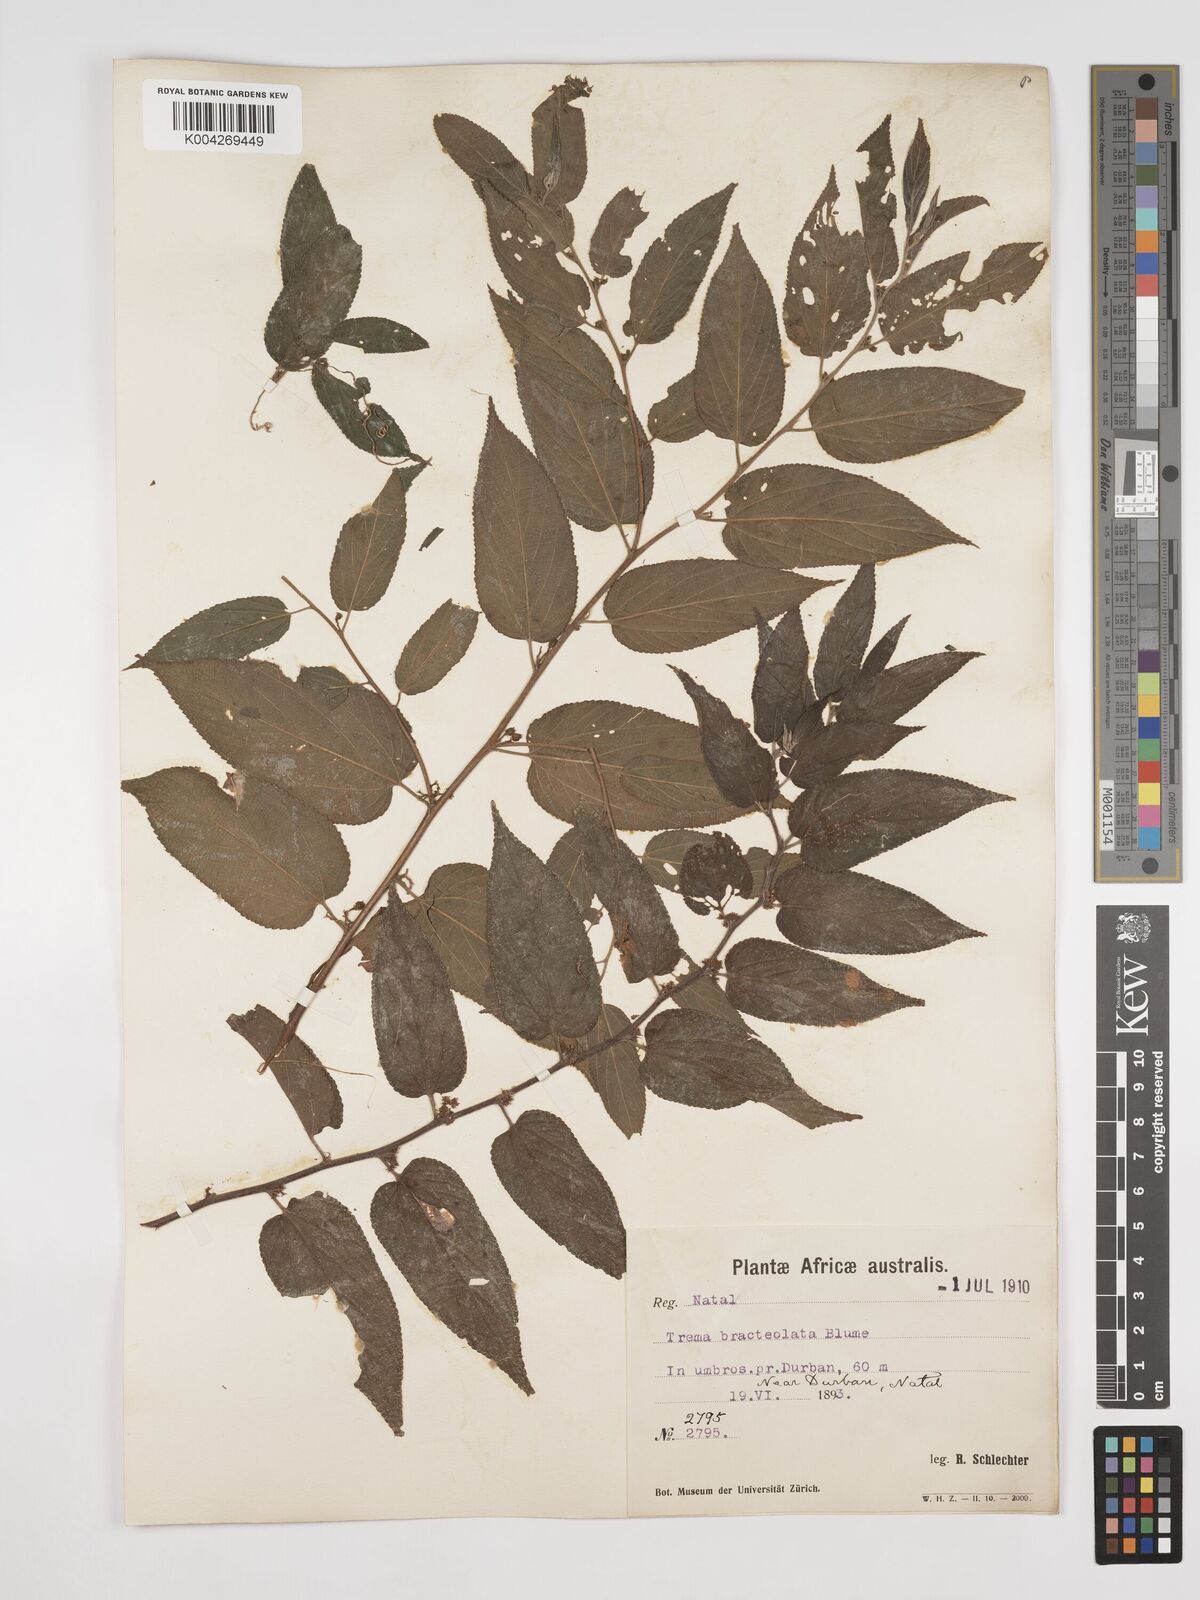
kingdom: Plantae
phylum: Tracheophyta
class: Magnoliopsida
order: Rosales
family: Cannabaceae
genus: Trema
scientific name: Trema orientale
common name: Indian charcoal tree
